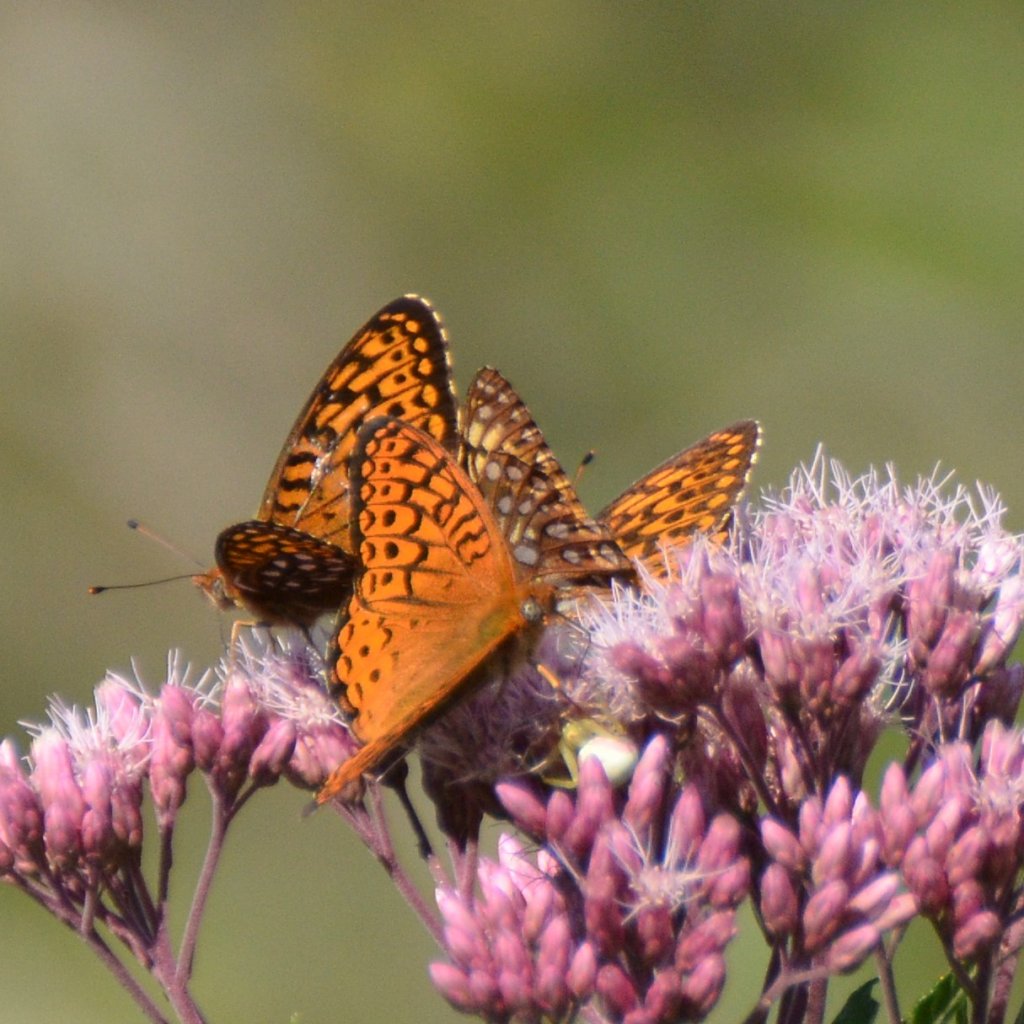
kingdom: Animalia
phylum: Arthropoda
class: Insecta
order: Lepidoptera
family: Nymphalidae
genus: Speyeria
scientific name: Speyeria atlantis
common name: Atlantis Fritillary
